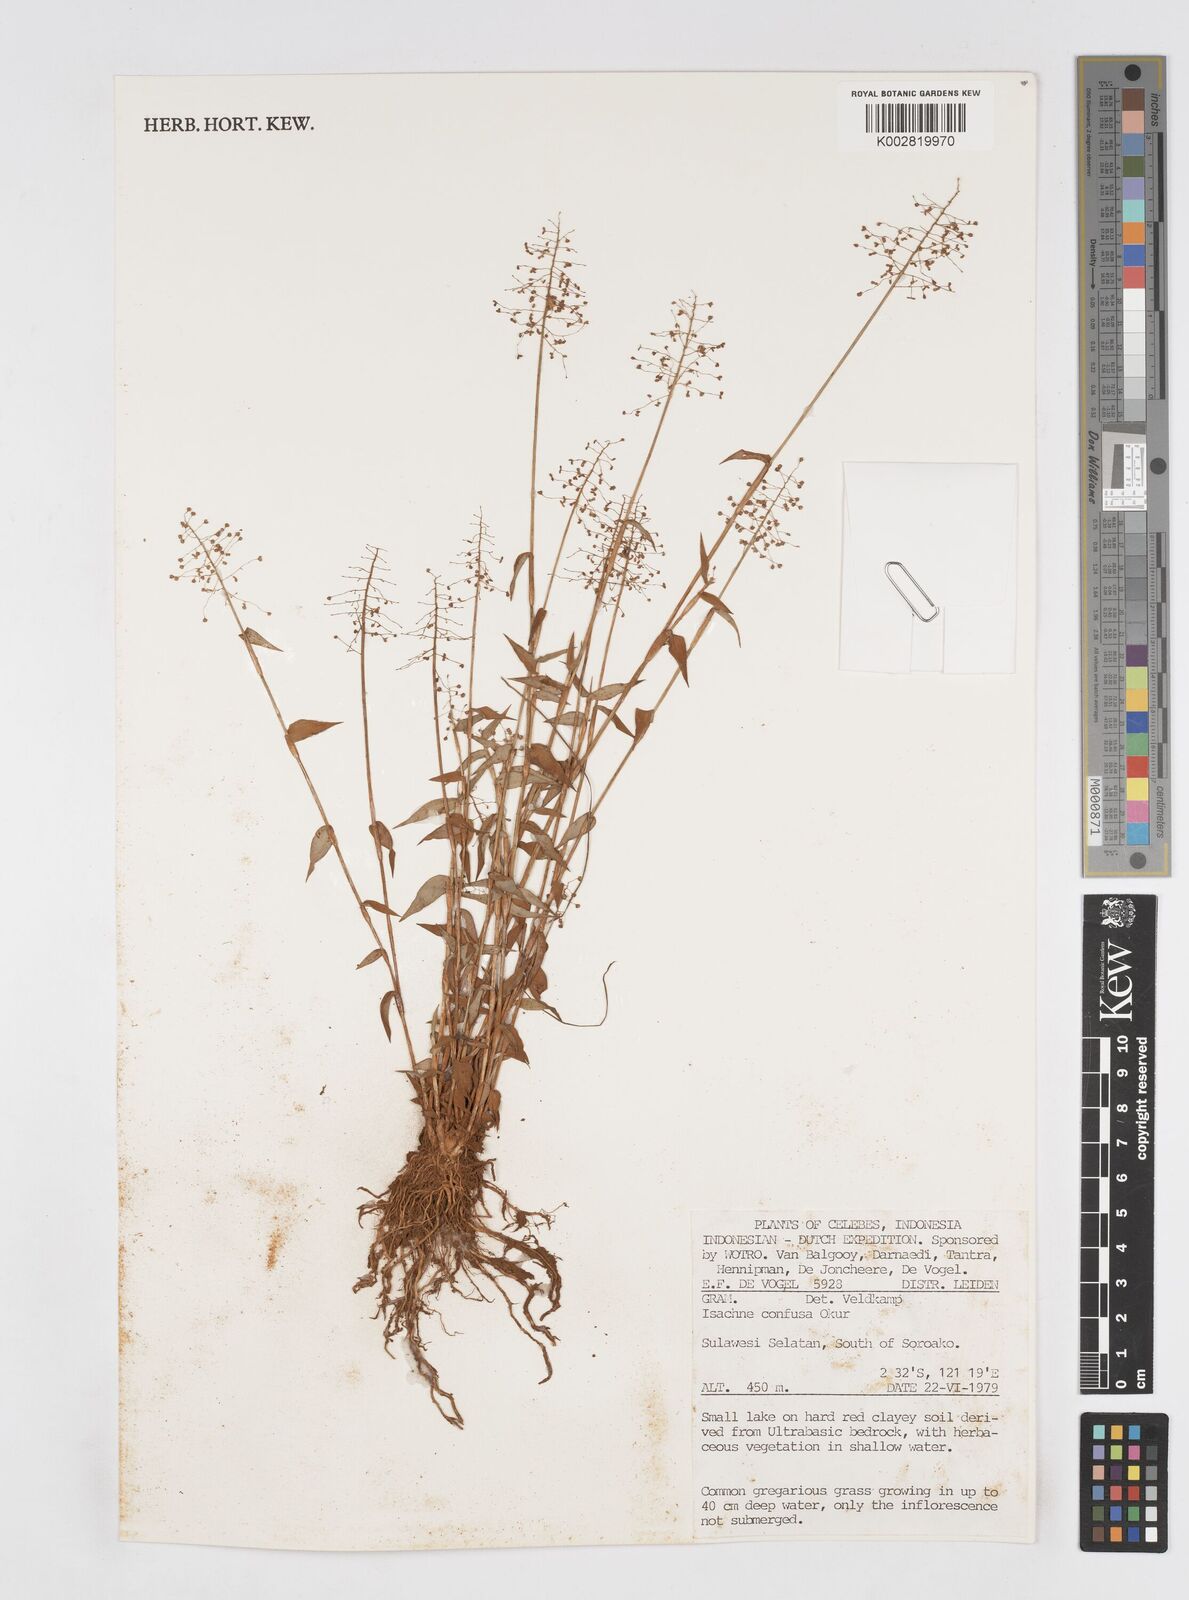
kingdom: Plantae
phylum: Tracheophyta
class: Liliopsida
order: Poales
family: Poaceae
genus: Isachne
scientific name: Isachne confusa
